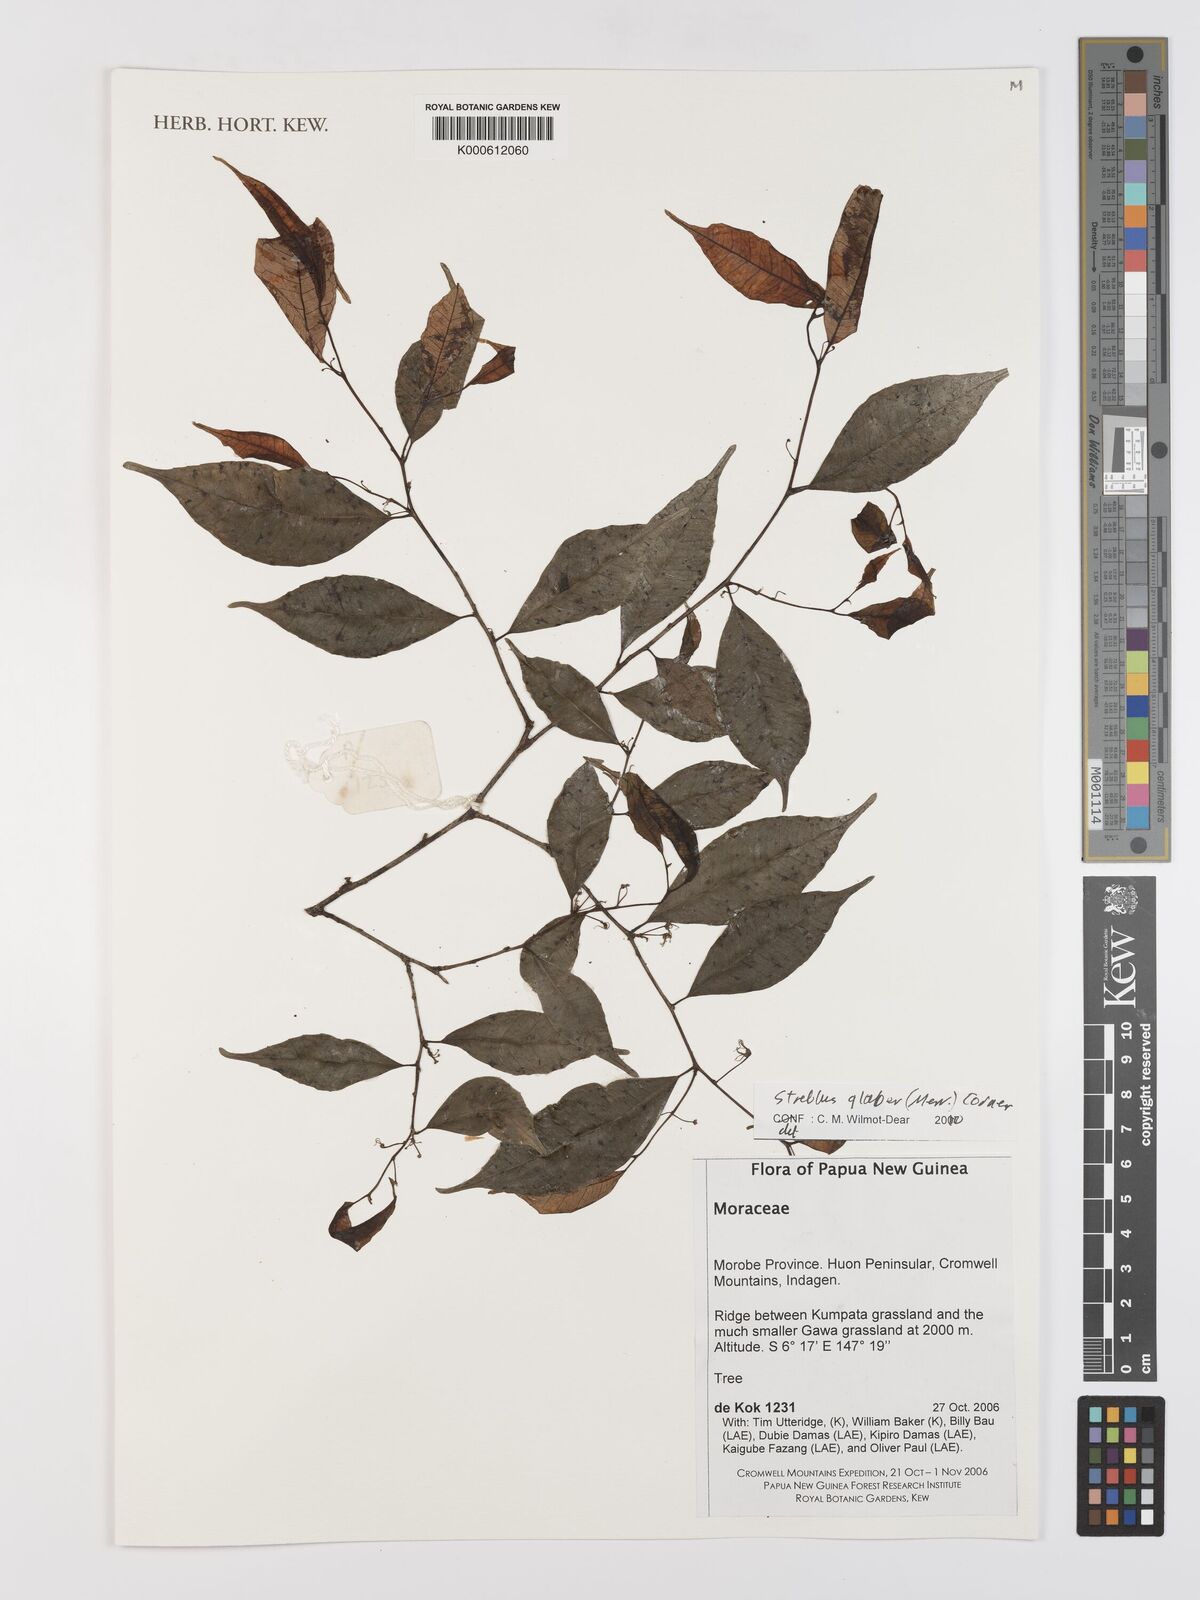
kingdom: Plantae
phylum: Tracheophyta
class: Magnoliopsida
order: Rosales
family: Moraceae
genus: Paratrophis
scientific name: Paratrophis glabra
